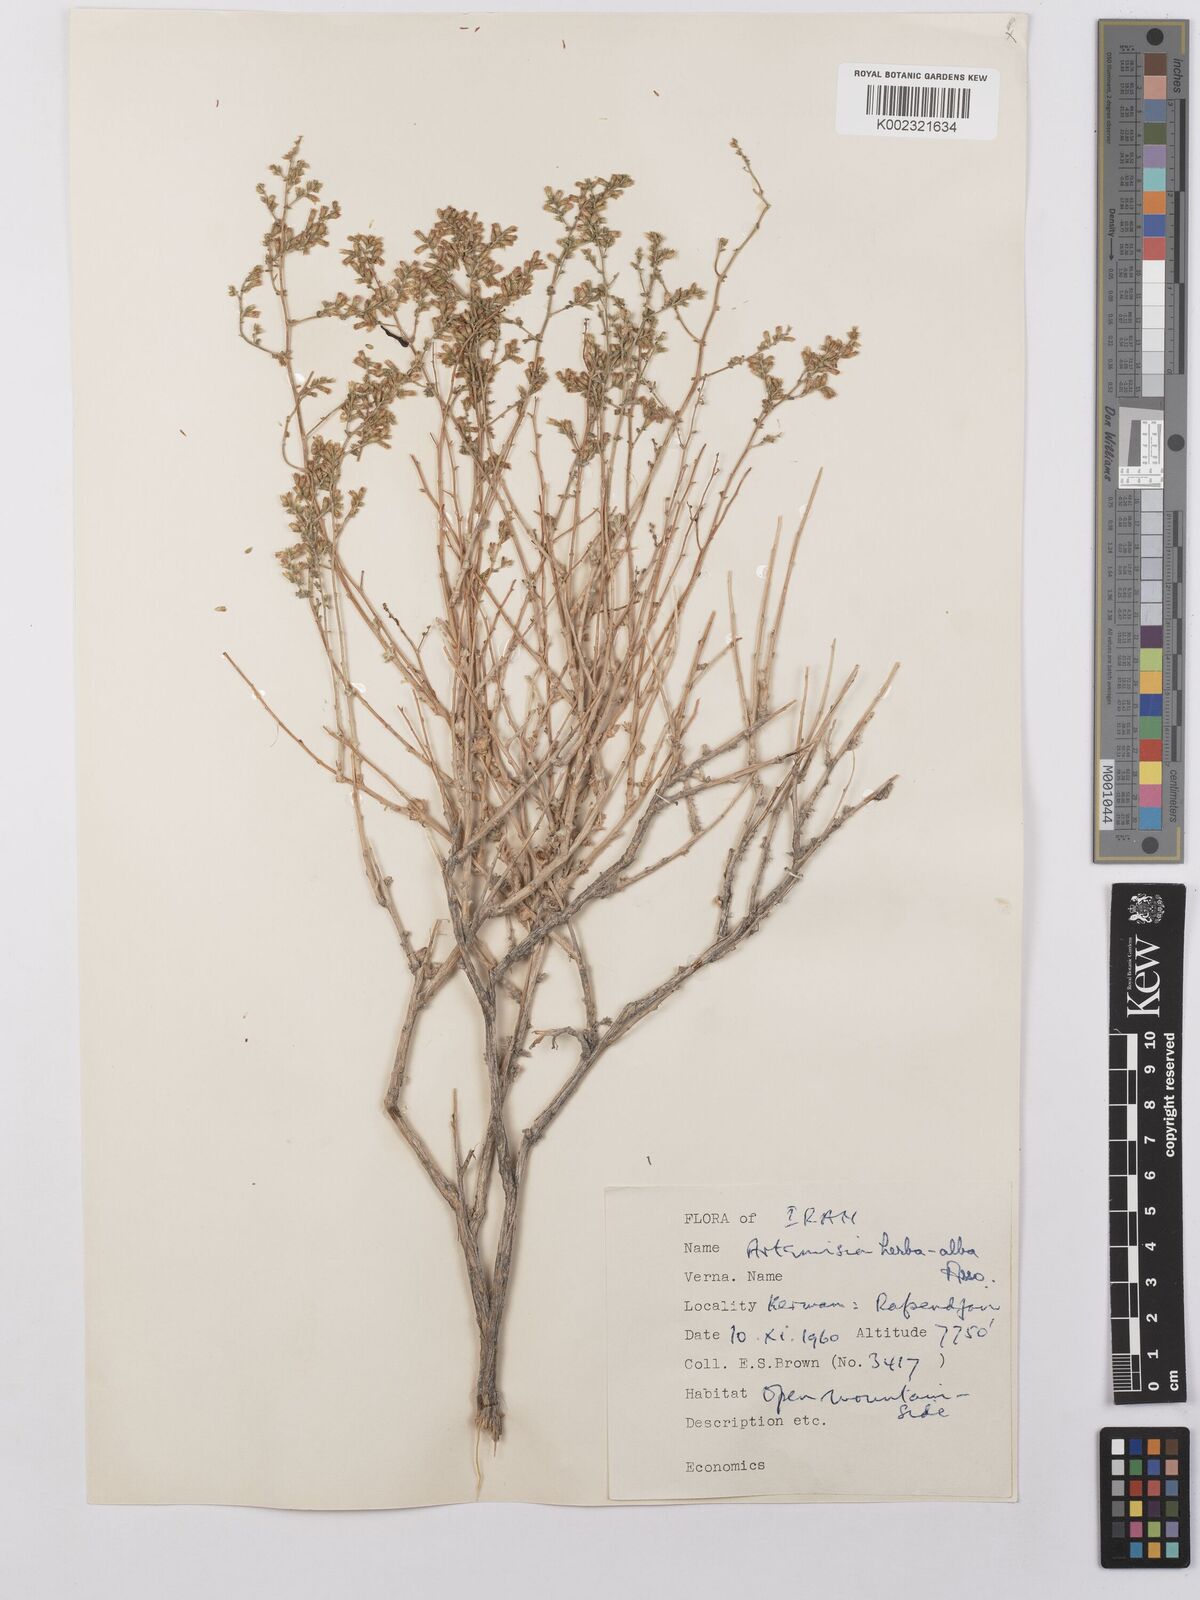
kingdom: Plantae
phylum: Tracheophyta
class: Magnoliopsida
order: Asterales
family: Asteraceae
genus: Artemisia
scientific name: Artemisia herba-alba
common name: White wormwood
